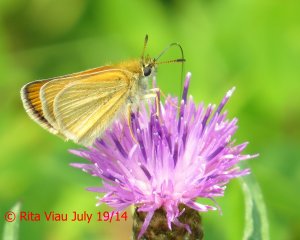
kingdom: Animalia
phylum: Arthropoda
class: Insecta
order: Lepidoptera
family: Hesperiidae
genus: Thymelicus
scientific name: Thymelicus lineola
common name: European Skipper
